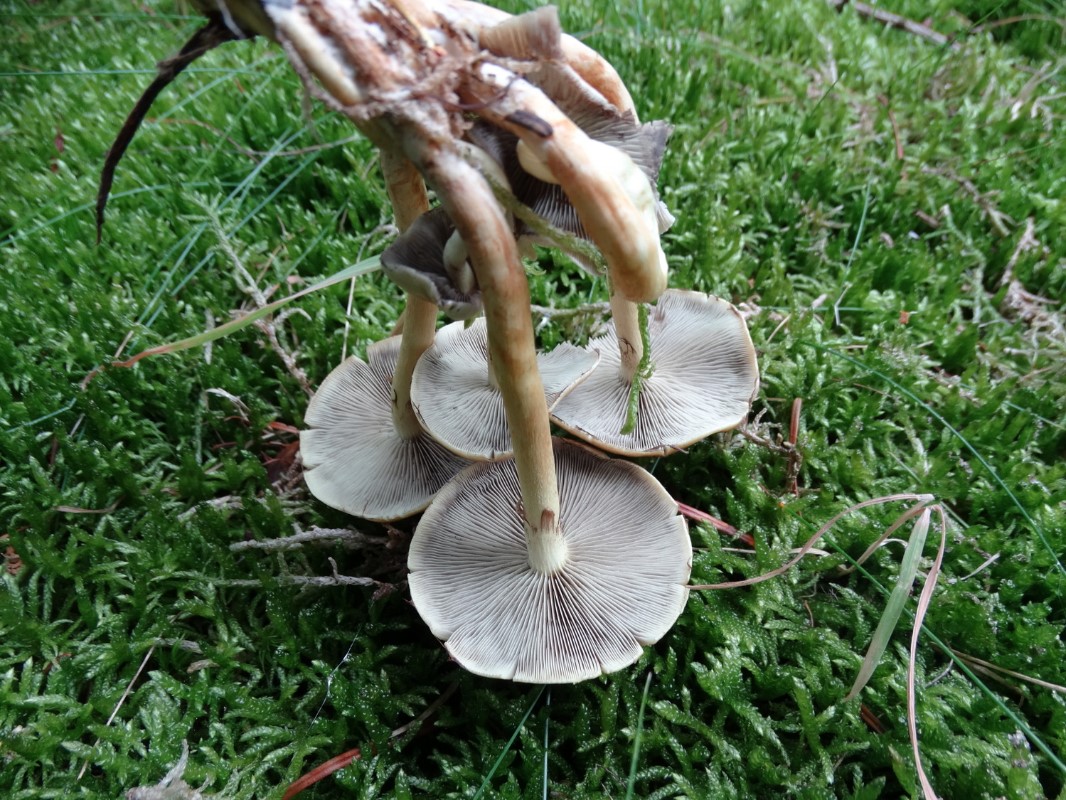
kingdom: Fungi
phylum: Basidiomycota
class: Agaricomycetes
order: Agaricales
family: Strophariaceae
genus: Hypholoma
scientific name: Hypholoma capnoides
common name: gran-svovlhat
